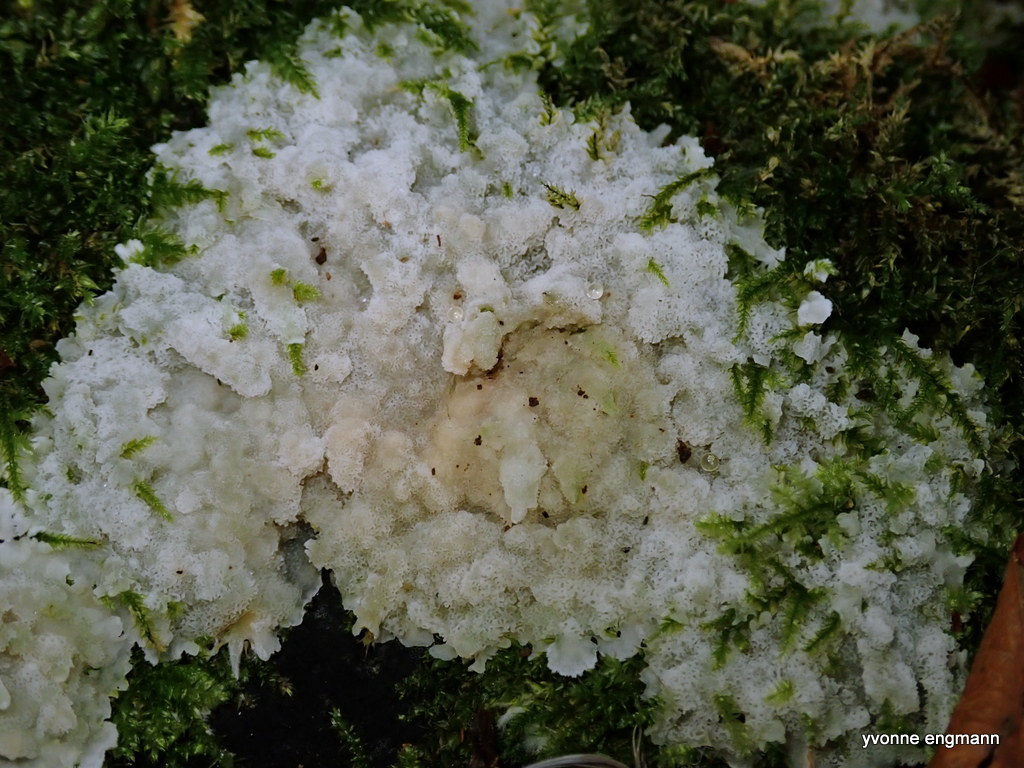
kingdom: Fungi
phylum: Basidiomycota
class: Agaricomycetes
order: Polyporales
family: Meruliaceae
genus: Physisporinus
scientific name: Physisporinus vitreus
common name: mastesvamp
